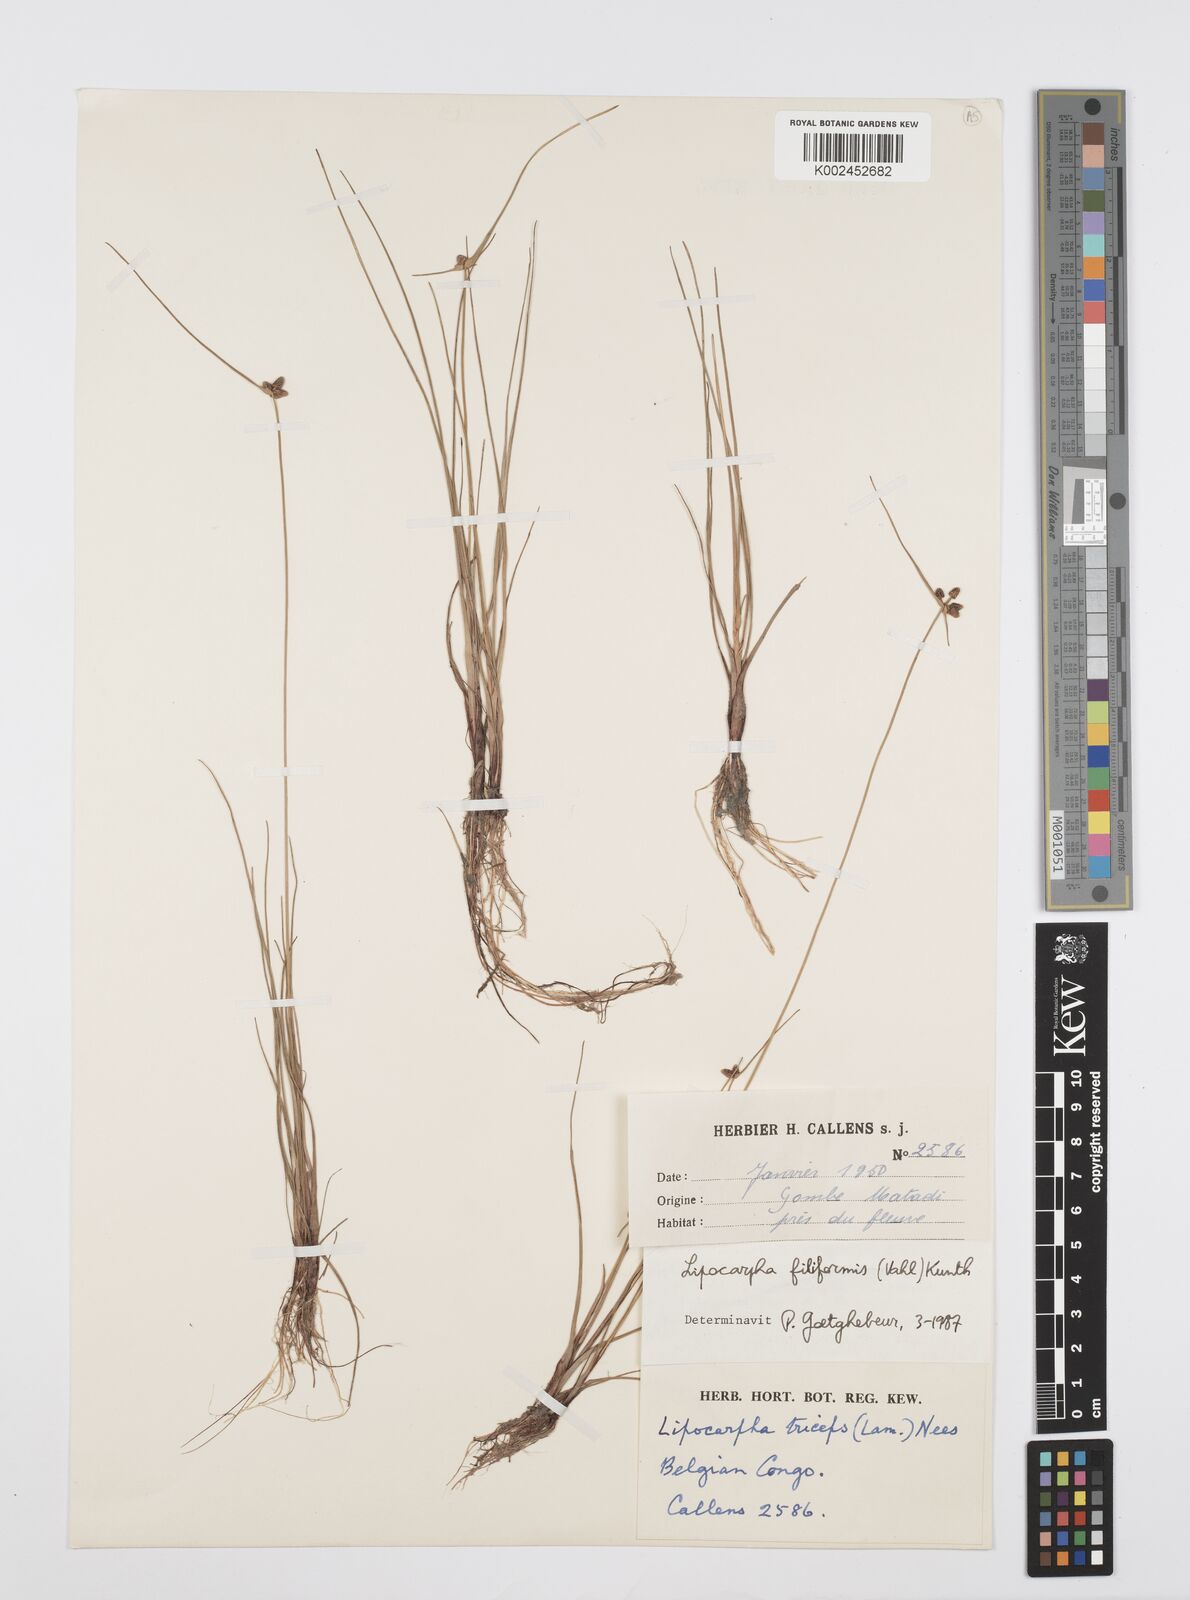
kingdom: Plantae
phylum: Tracheophyta
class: Liliopsida
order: Poales
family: Cyperaceae
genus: Cyperus
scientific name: Cyperus filiformis
